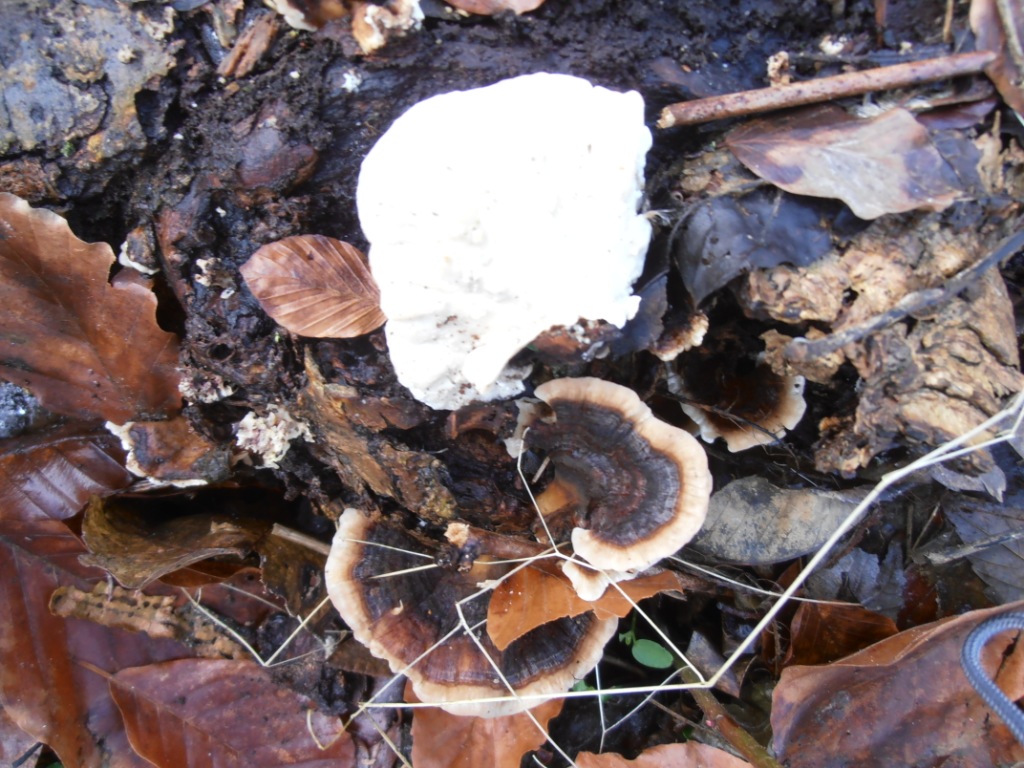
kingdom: Fungi
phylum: Basidiomycota
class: Agaricomycetes
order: Polyporales
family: Polyporaceae
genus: Trametes
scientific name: Trametes versicolor
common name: broget læderporesvamp
